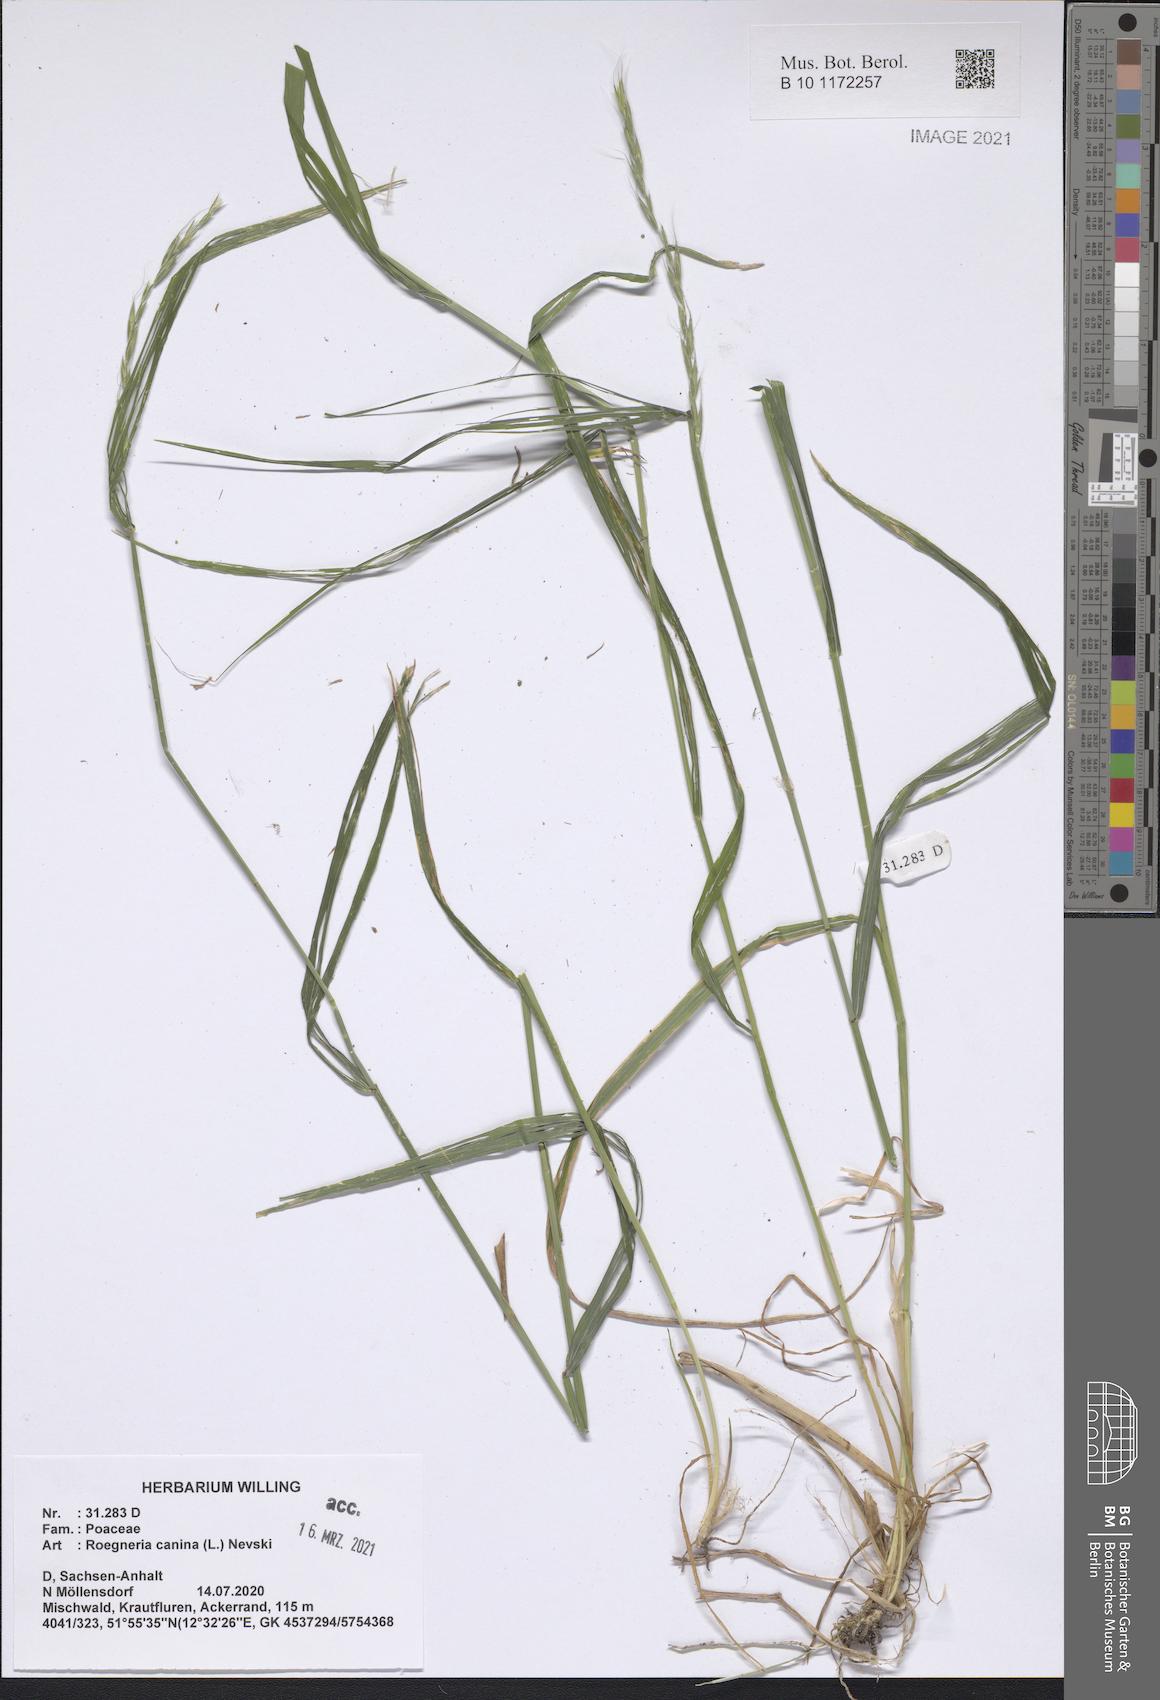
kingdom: Plantae
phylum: Tracheophyta
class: Liliopsida
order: Poales
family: Poaceae
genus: Elymus
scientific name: Elymus caninus
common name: Bearded couch
